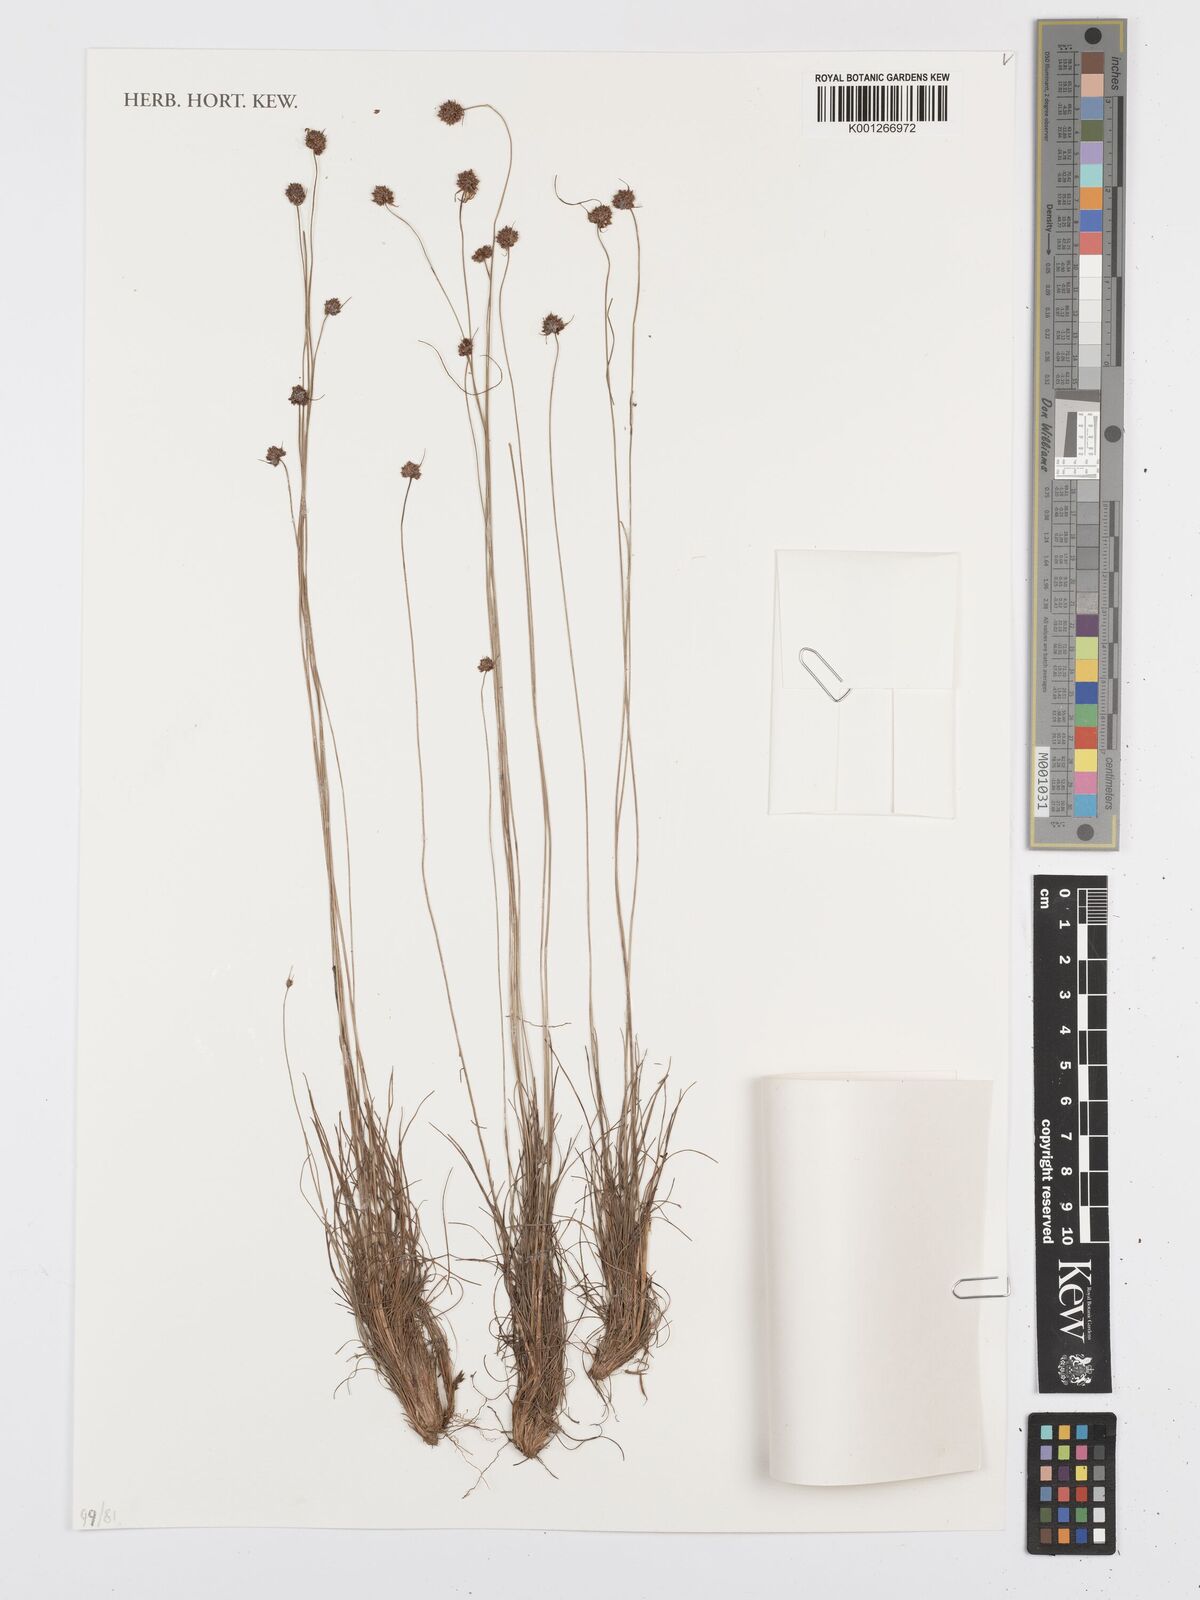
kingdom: Plantae
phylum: Tracheophyta
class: Liliopsida
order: Poales
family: Cyperaceae
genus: Bulbostylis
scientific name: Bulbostylis
